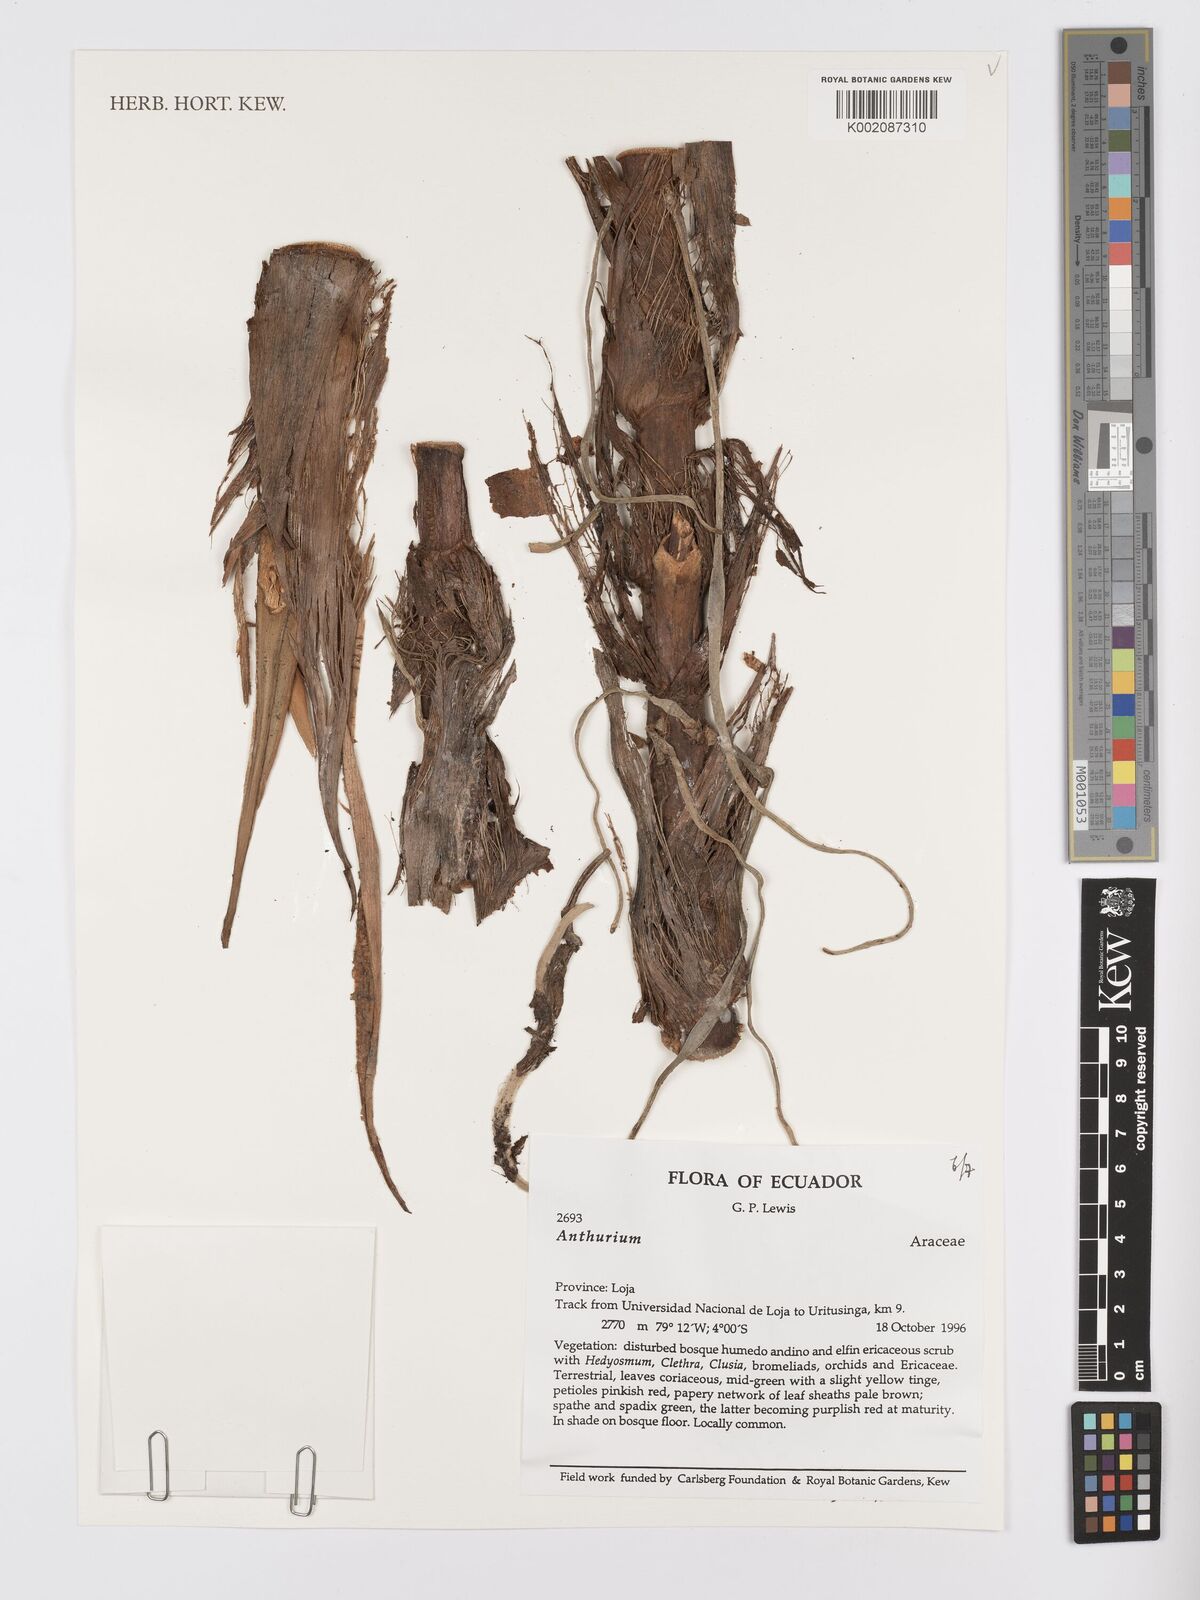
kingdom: Plantae
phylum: Tracheophyta
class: Liliopsida
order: Alismatales
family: Araceae
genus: Anthurium
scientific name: Anthurium
